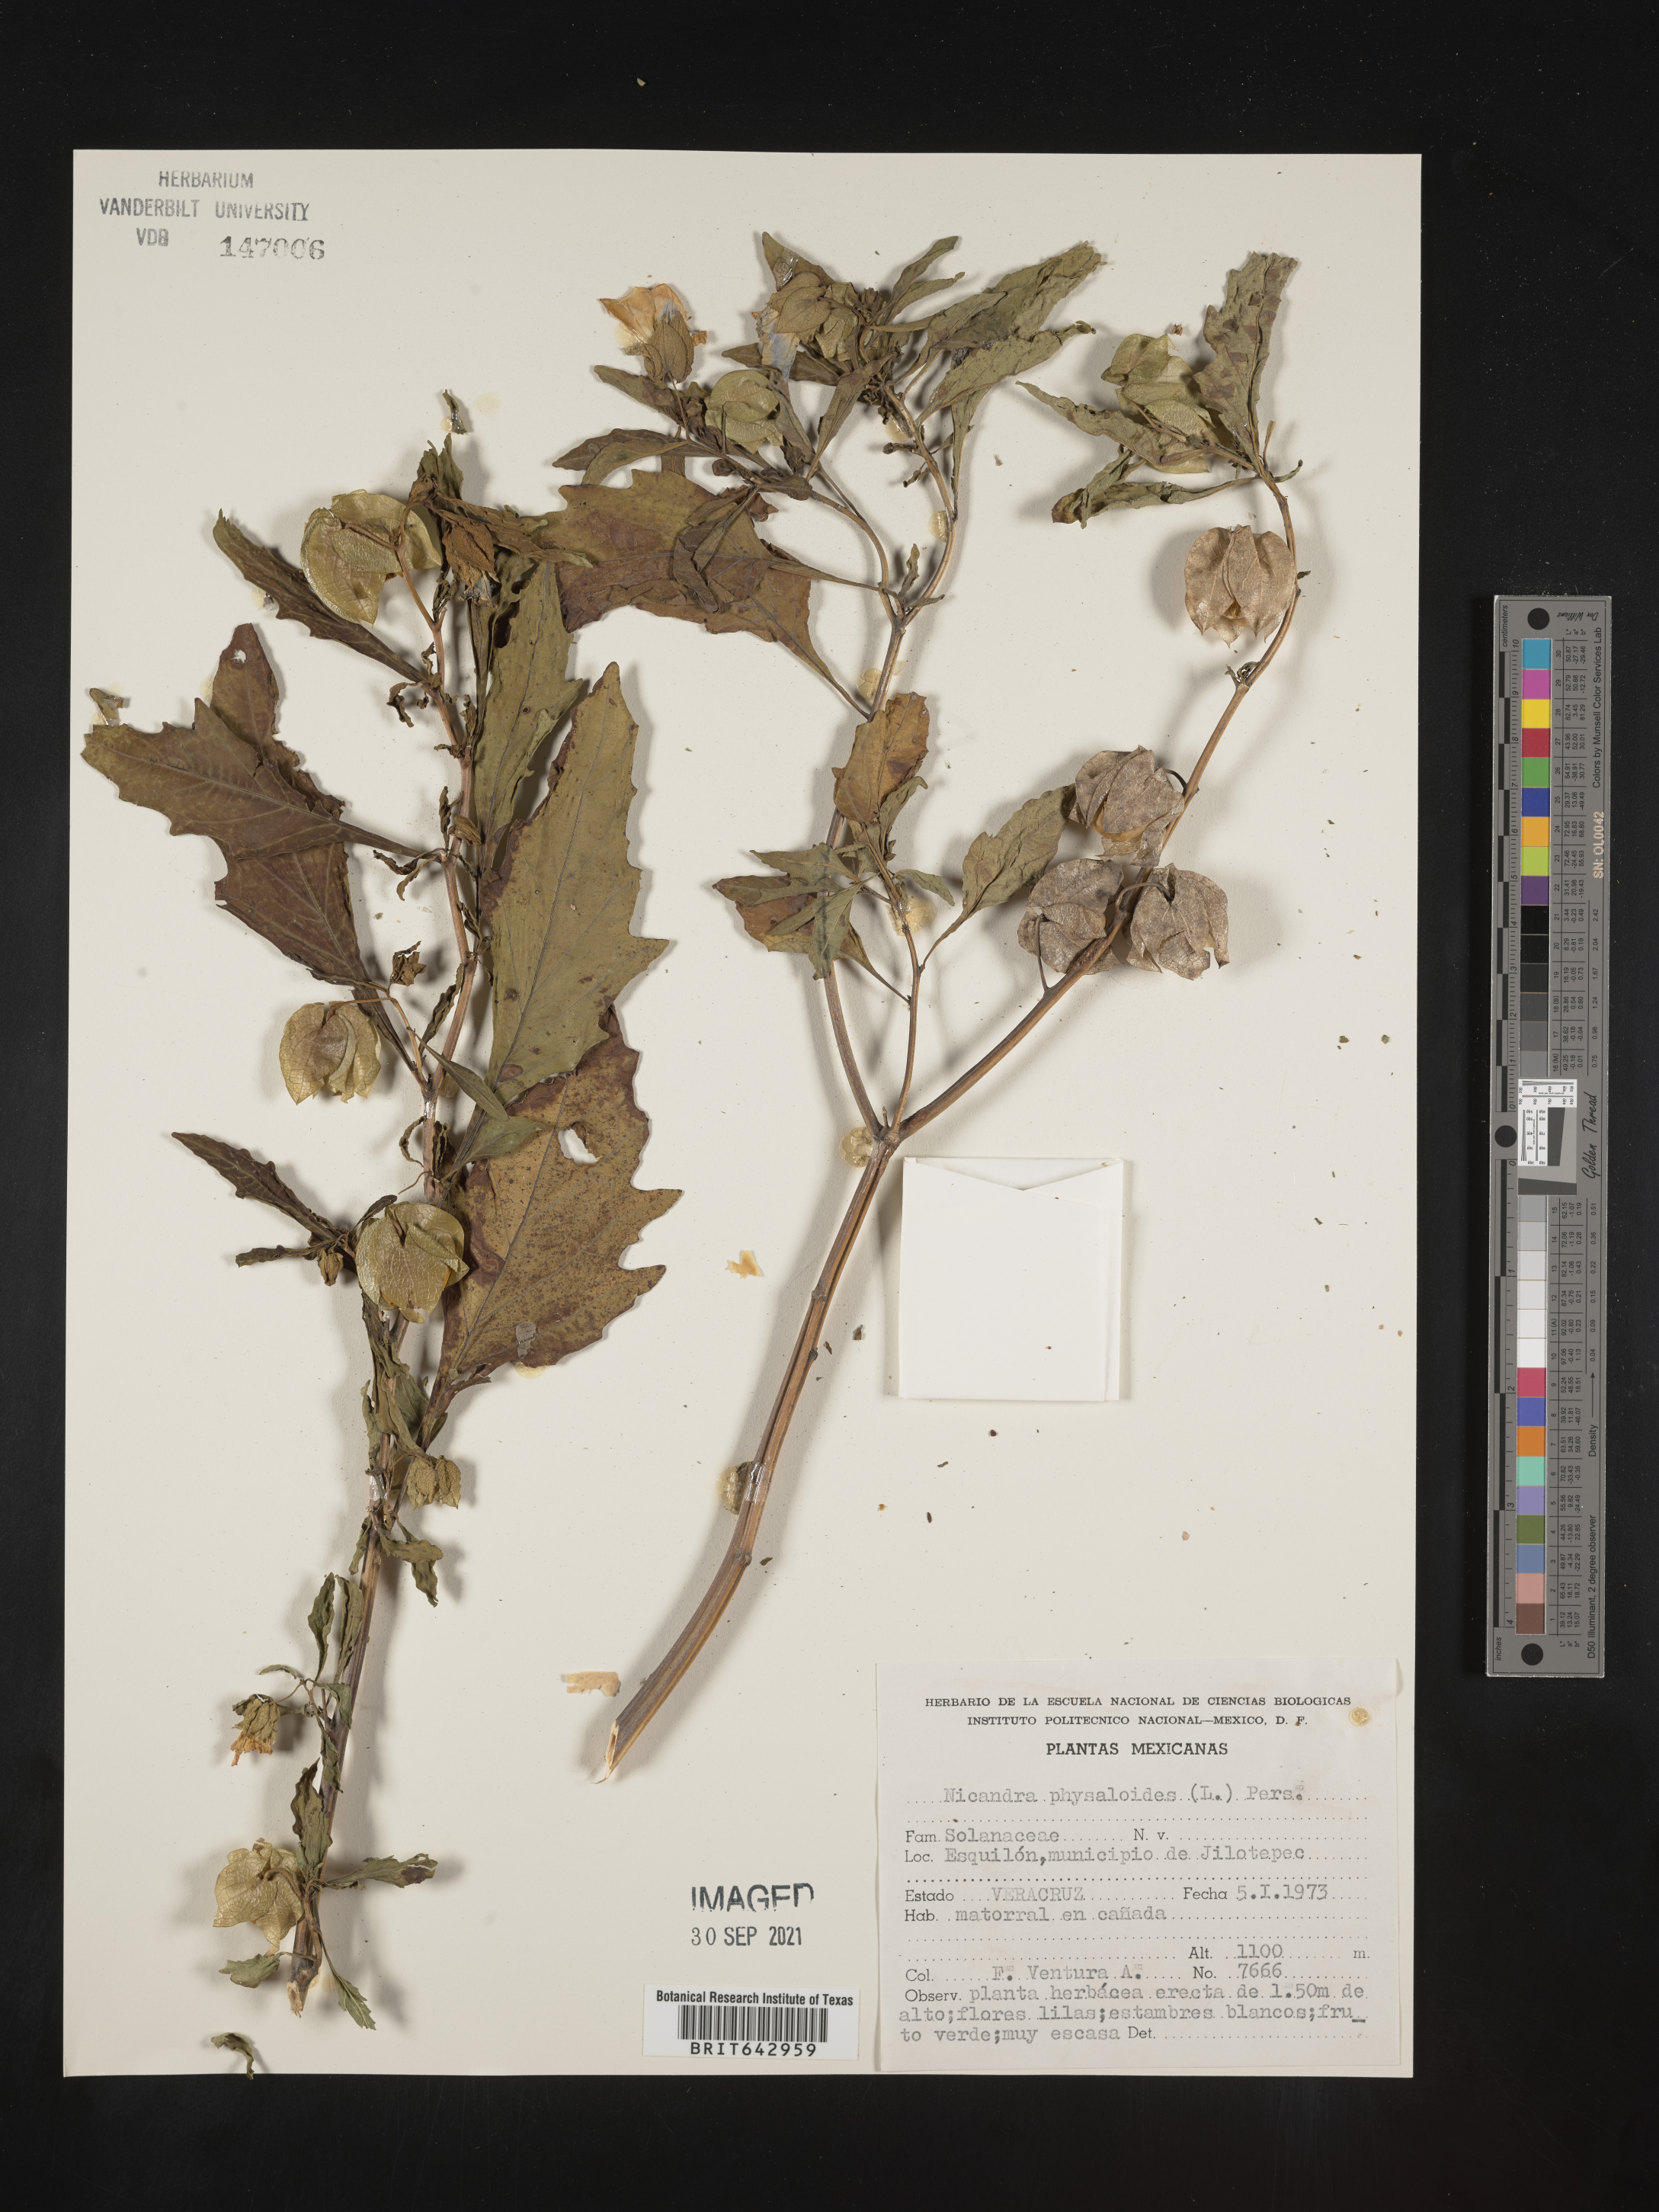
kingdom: Plantae
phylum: Tracheophyta
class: Magnoliopsida
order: Solanales
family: Solanaceae
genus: Nicandra
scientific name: Nicandra
